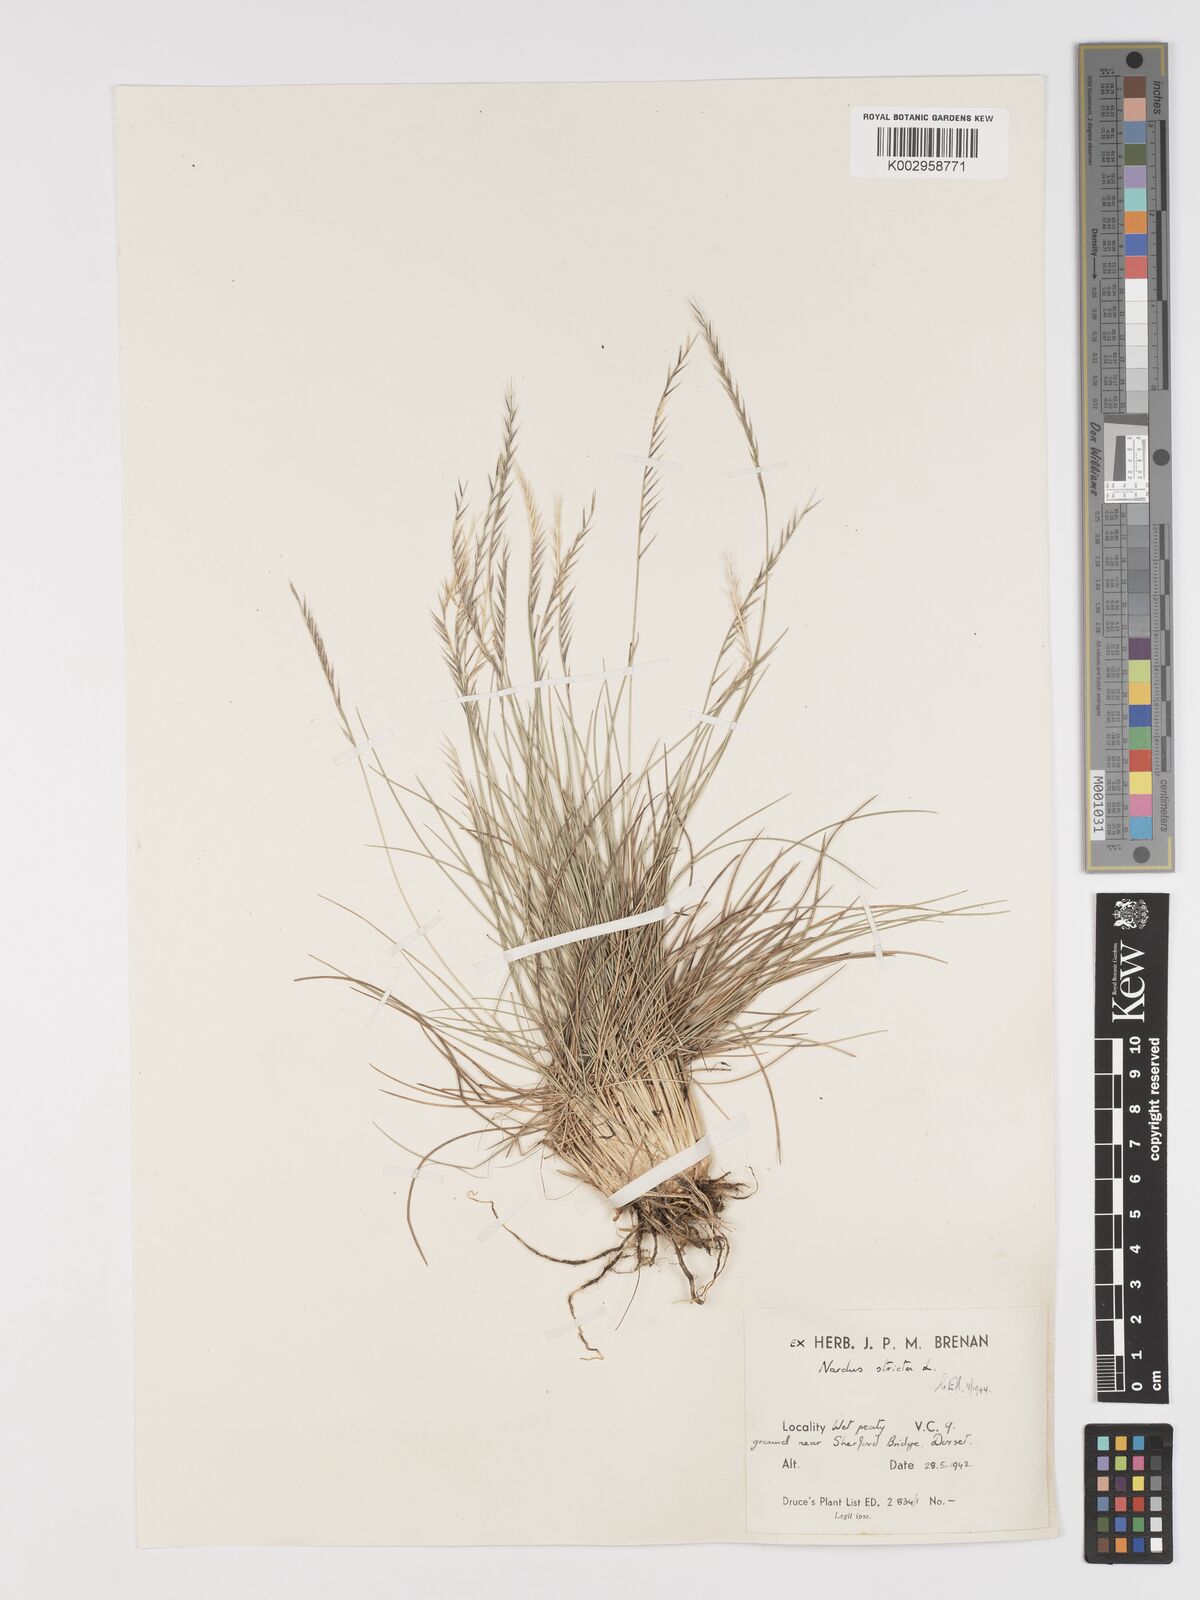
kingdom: Plantae
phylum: Tracheophyta
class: Liliopsida
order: Poales
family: Poaceae
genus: Nardus
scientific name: Nardus stricta
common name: Mat-grass
